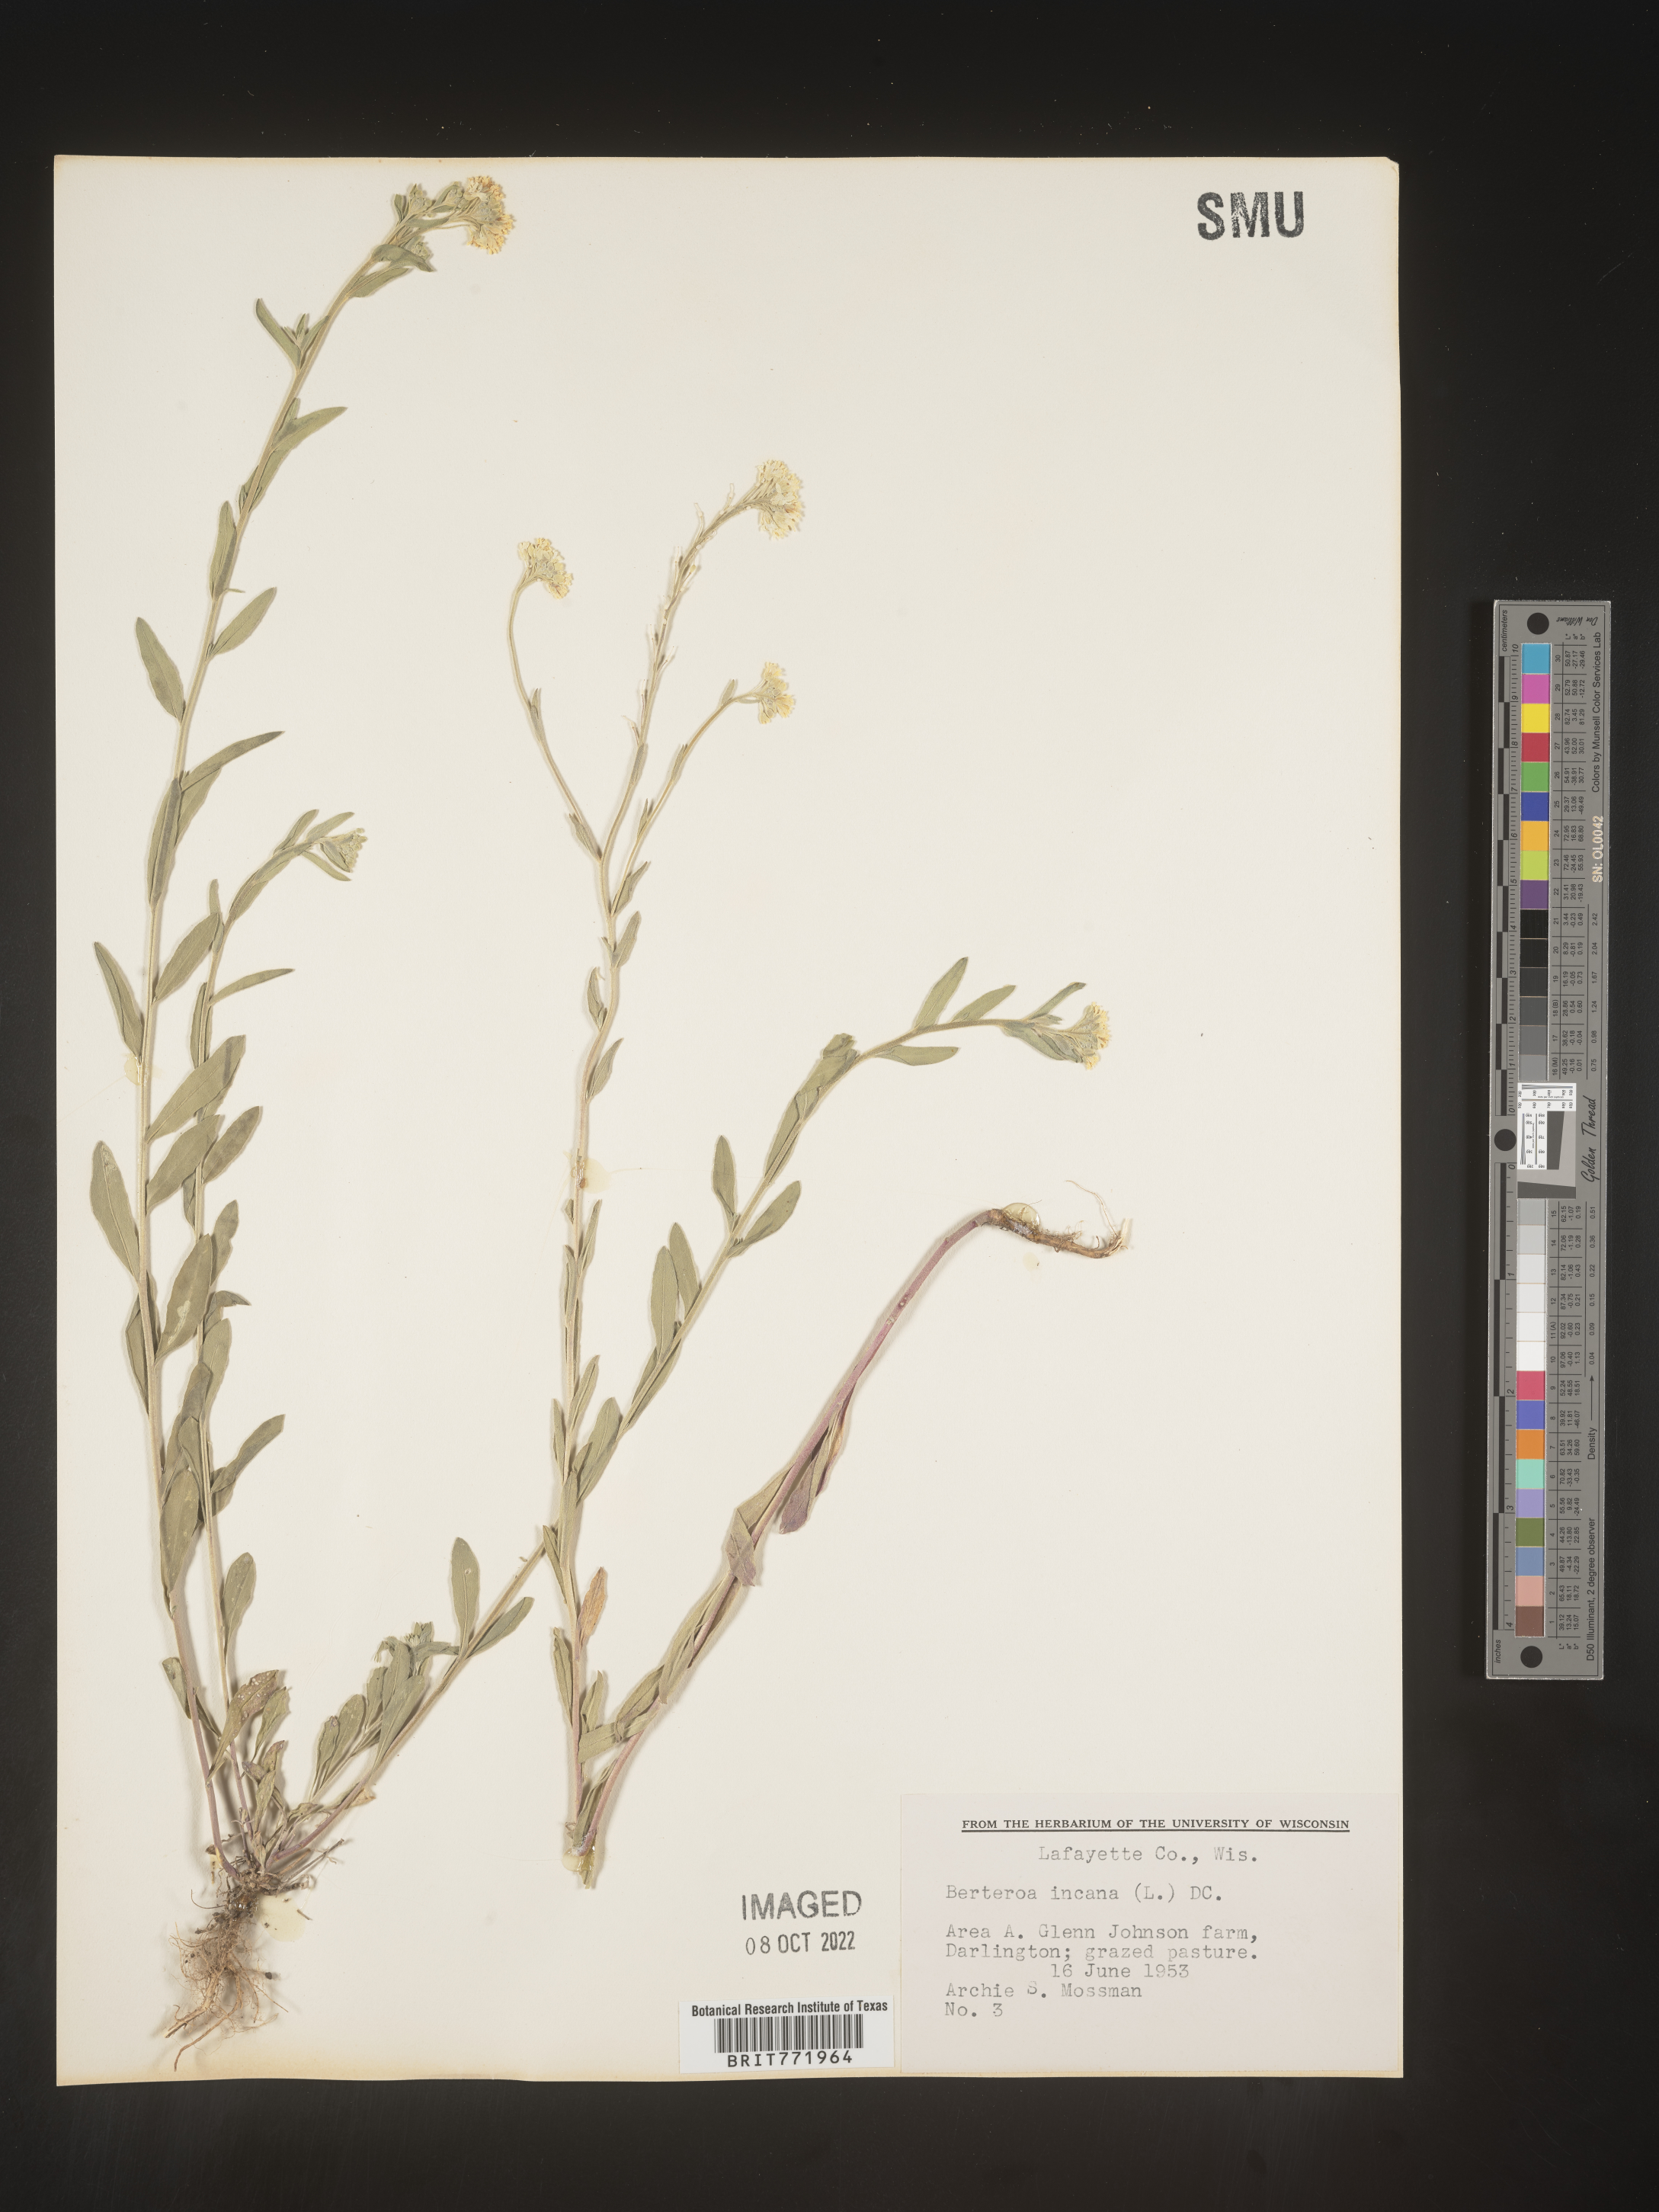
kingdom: Plantae
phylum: Tracheophyta
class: Magnoliopsida
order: Brassicales
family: Brassicaceae
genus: Berteroa
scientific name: Berteroa incana
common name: Hoary alison
